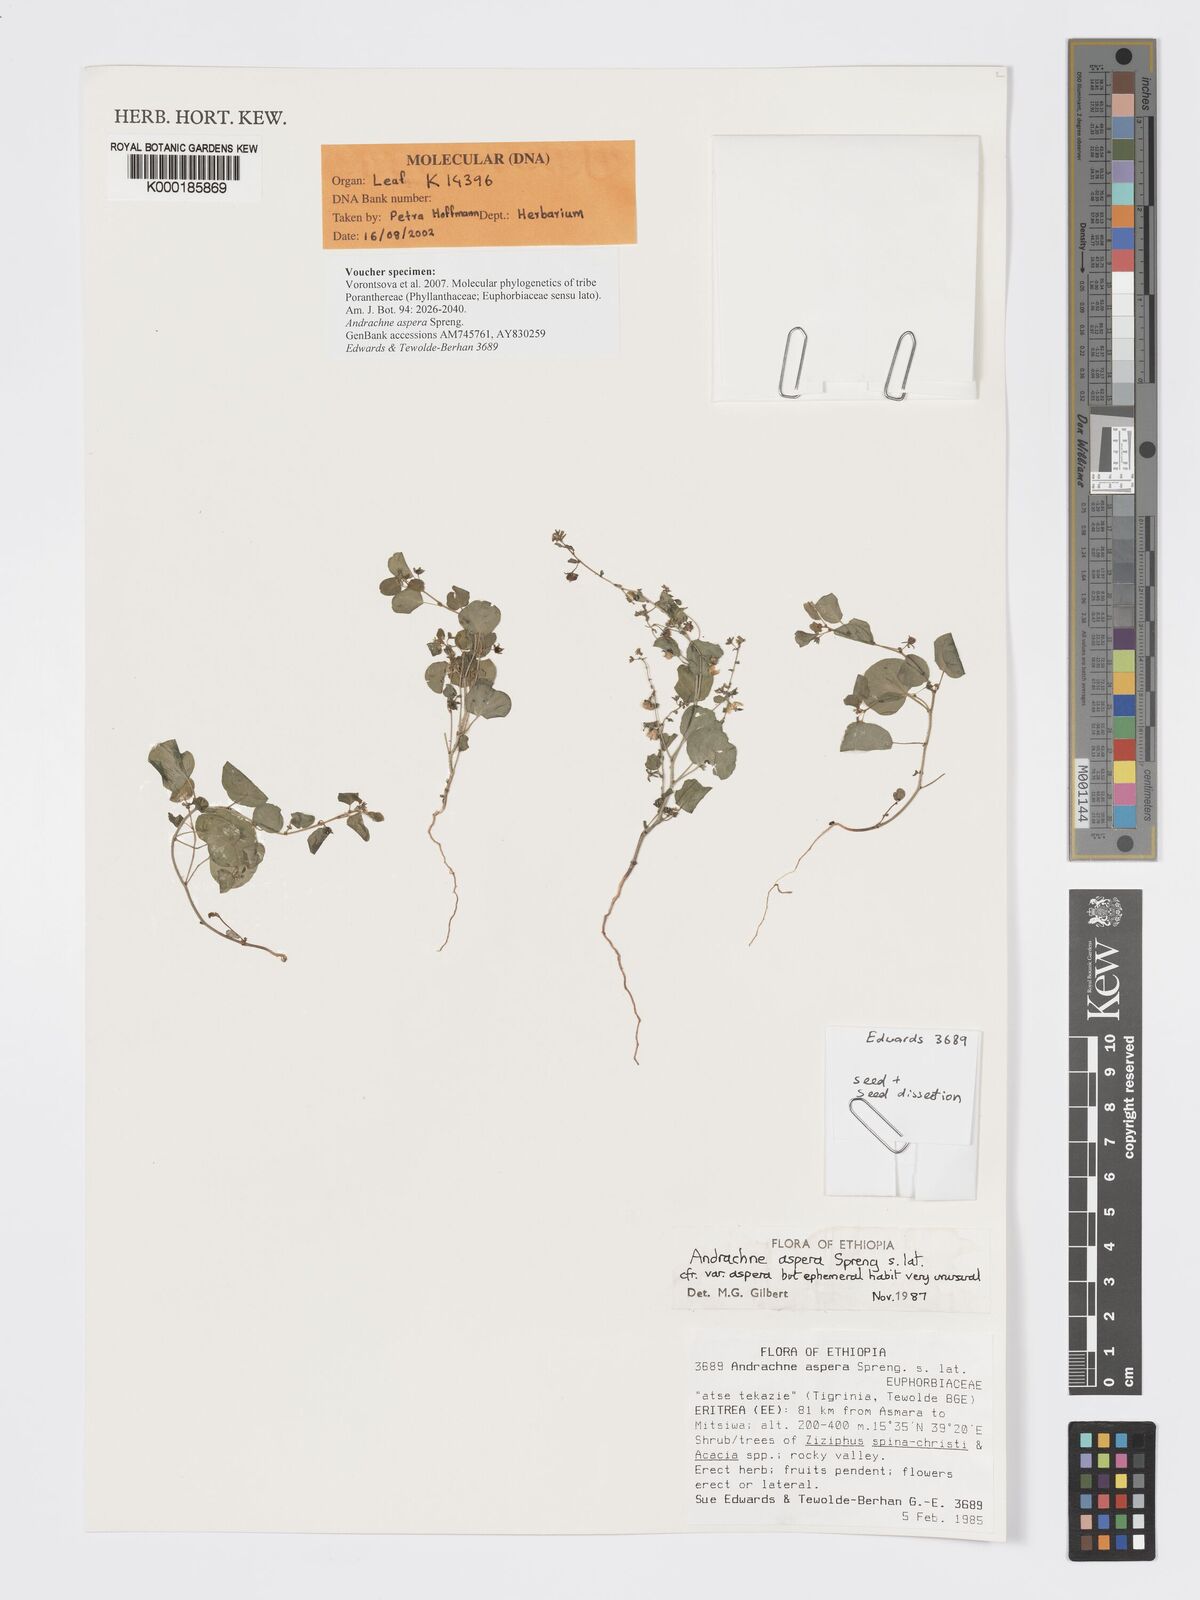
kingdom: Plantae
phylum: Tracheophyta
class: Magnoliopsida
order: Malpighiales
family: Phyllanthaceae
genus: Andrachne
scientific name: Andrachne aspera
